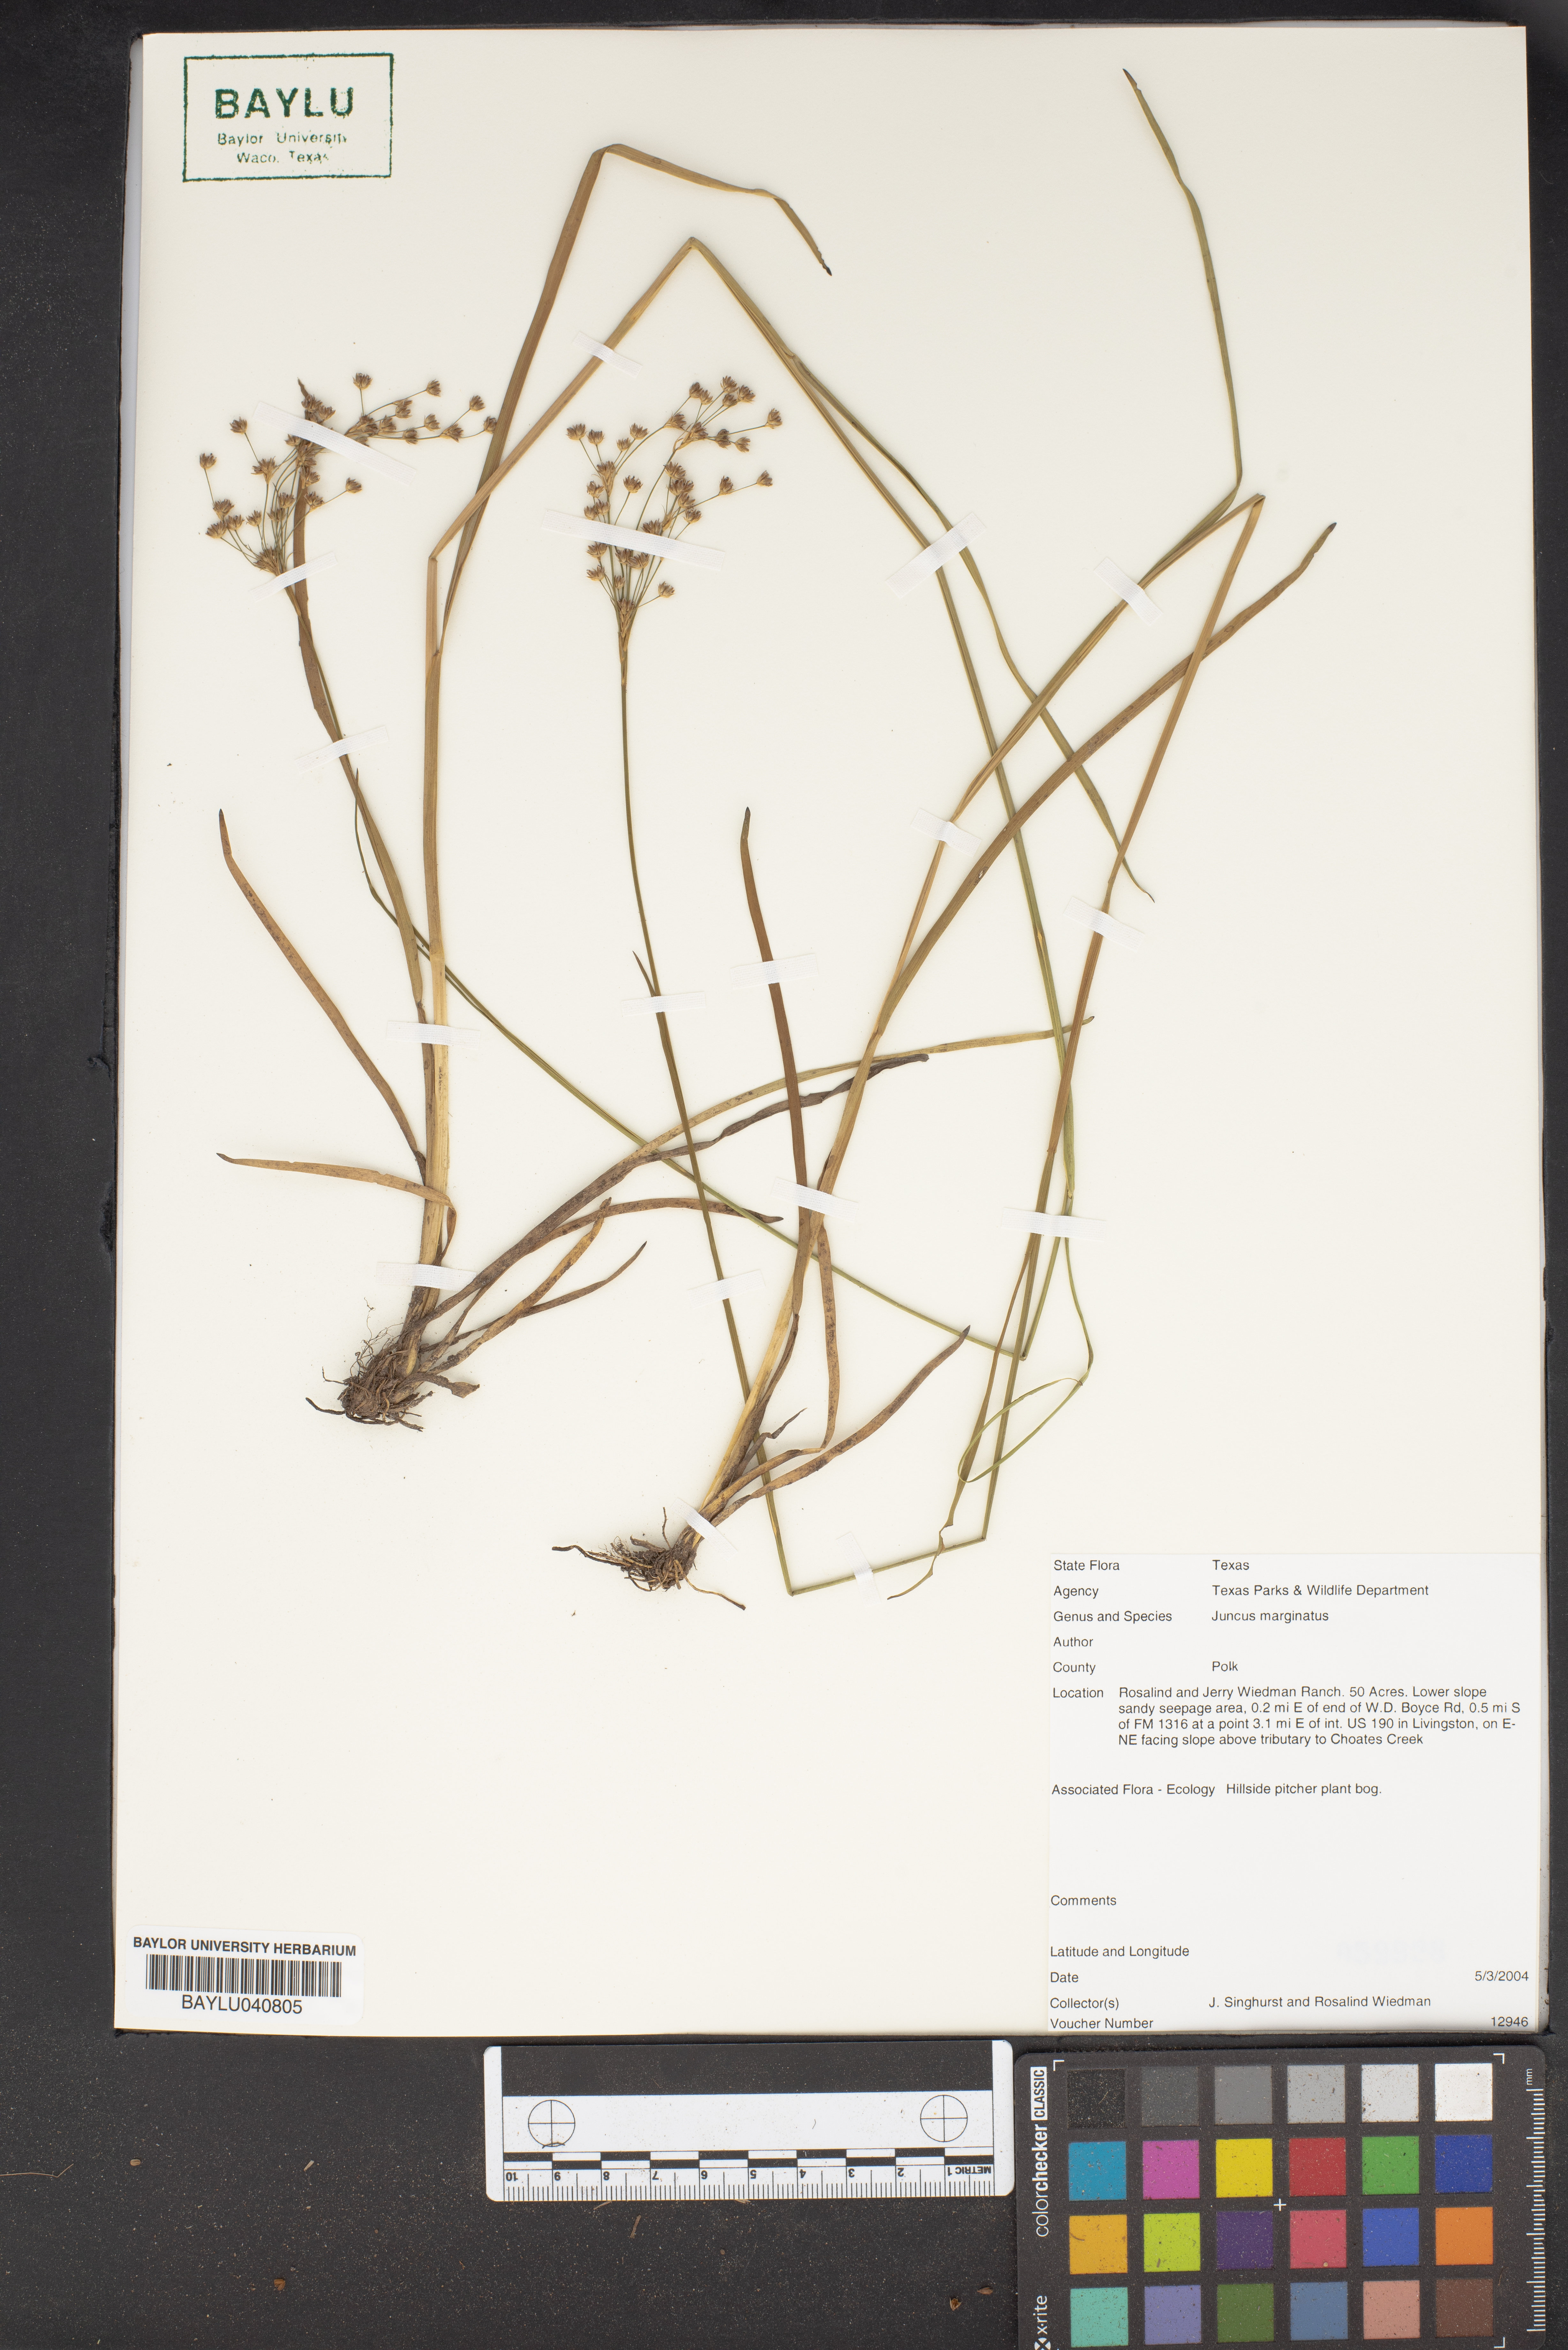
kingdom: Plantae
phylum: Tracheophyta
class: Liliopsida
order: Poales
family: Juncaceae
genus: Juncus
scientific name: Juncus marginatus
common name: Grass-leaf rush
